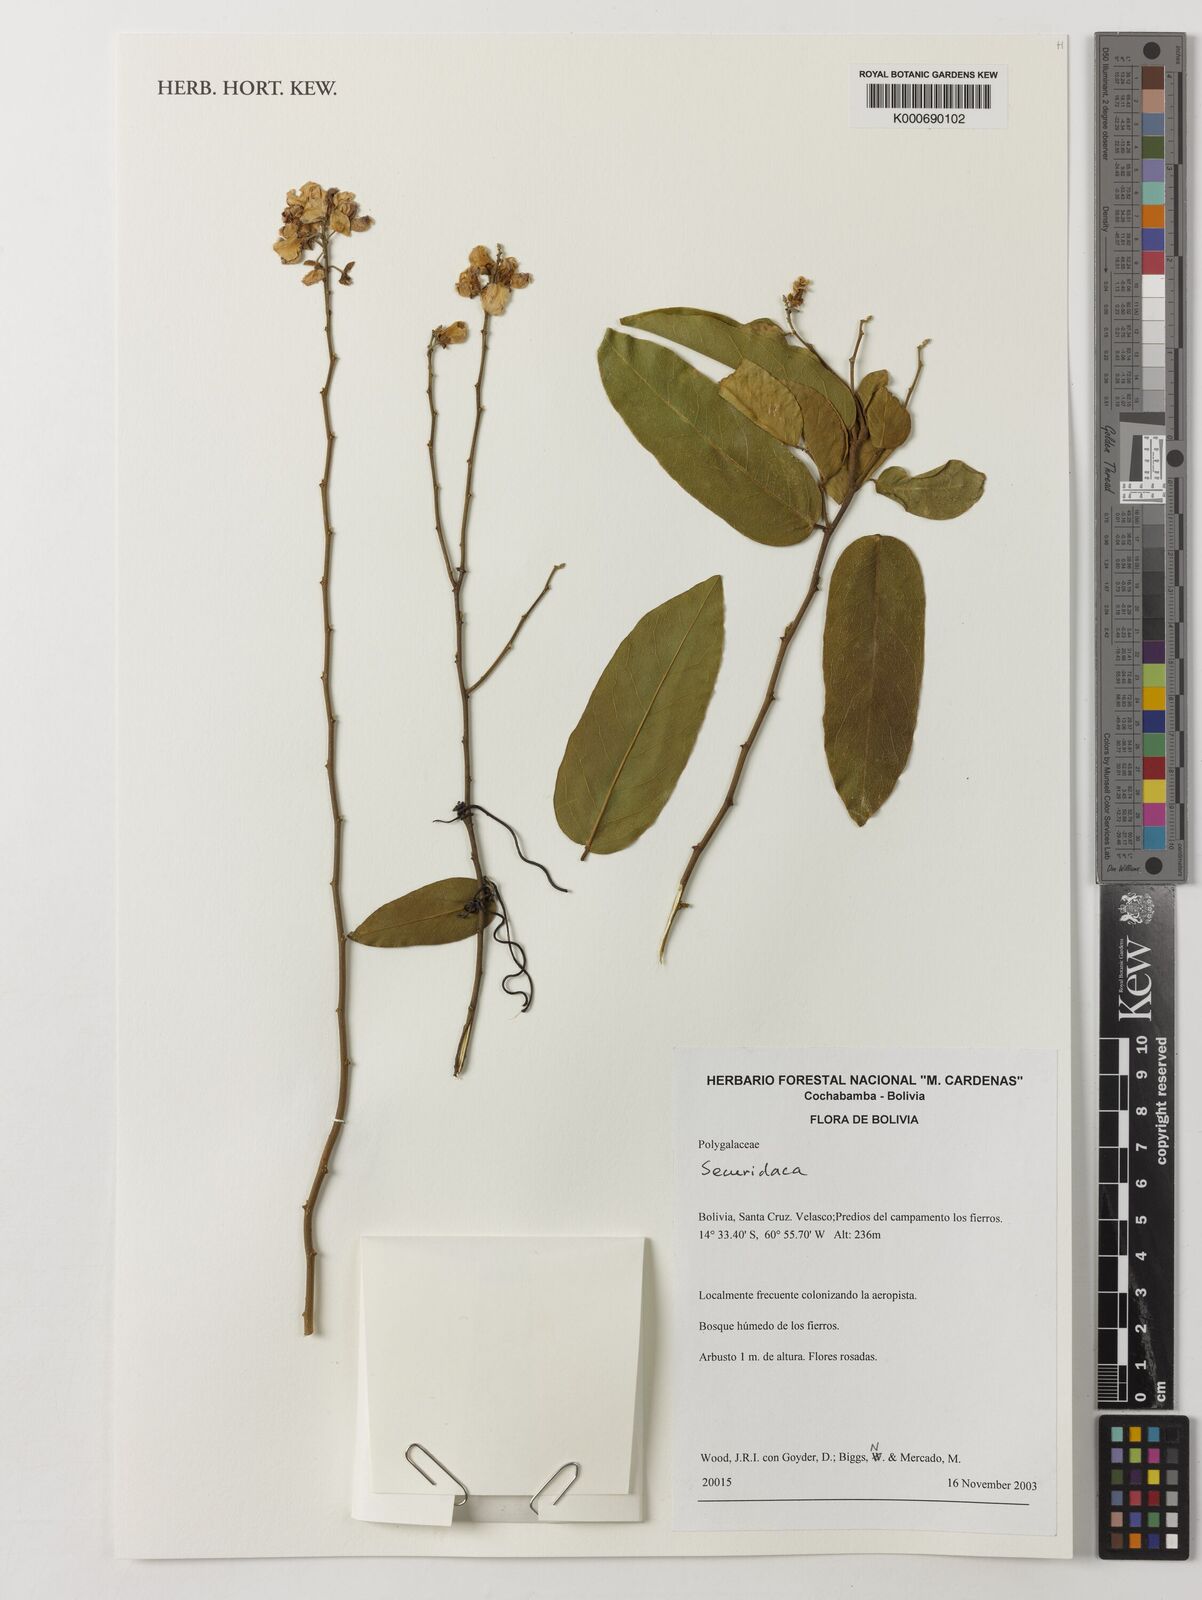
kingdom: Plantae
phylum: Tracheophyta
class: Magnoliopsida
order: Fabales
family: Polygalaceae
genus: Securidaca
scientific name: Securidaca
